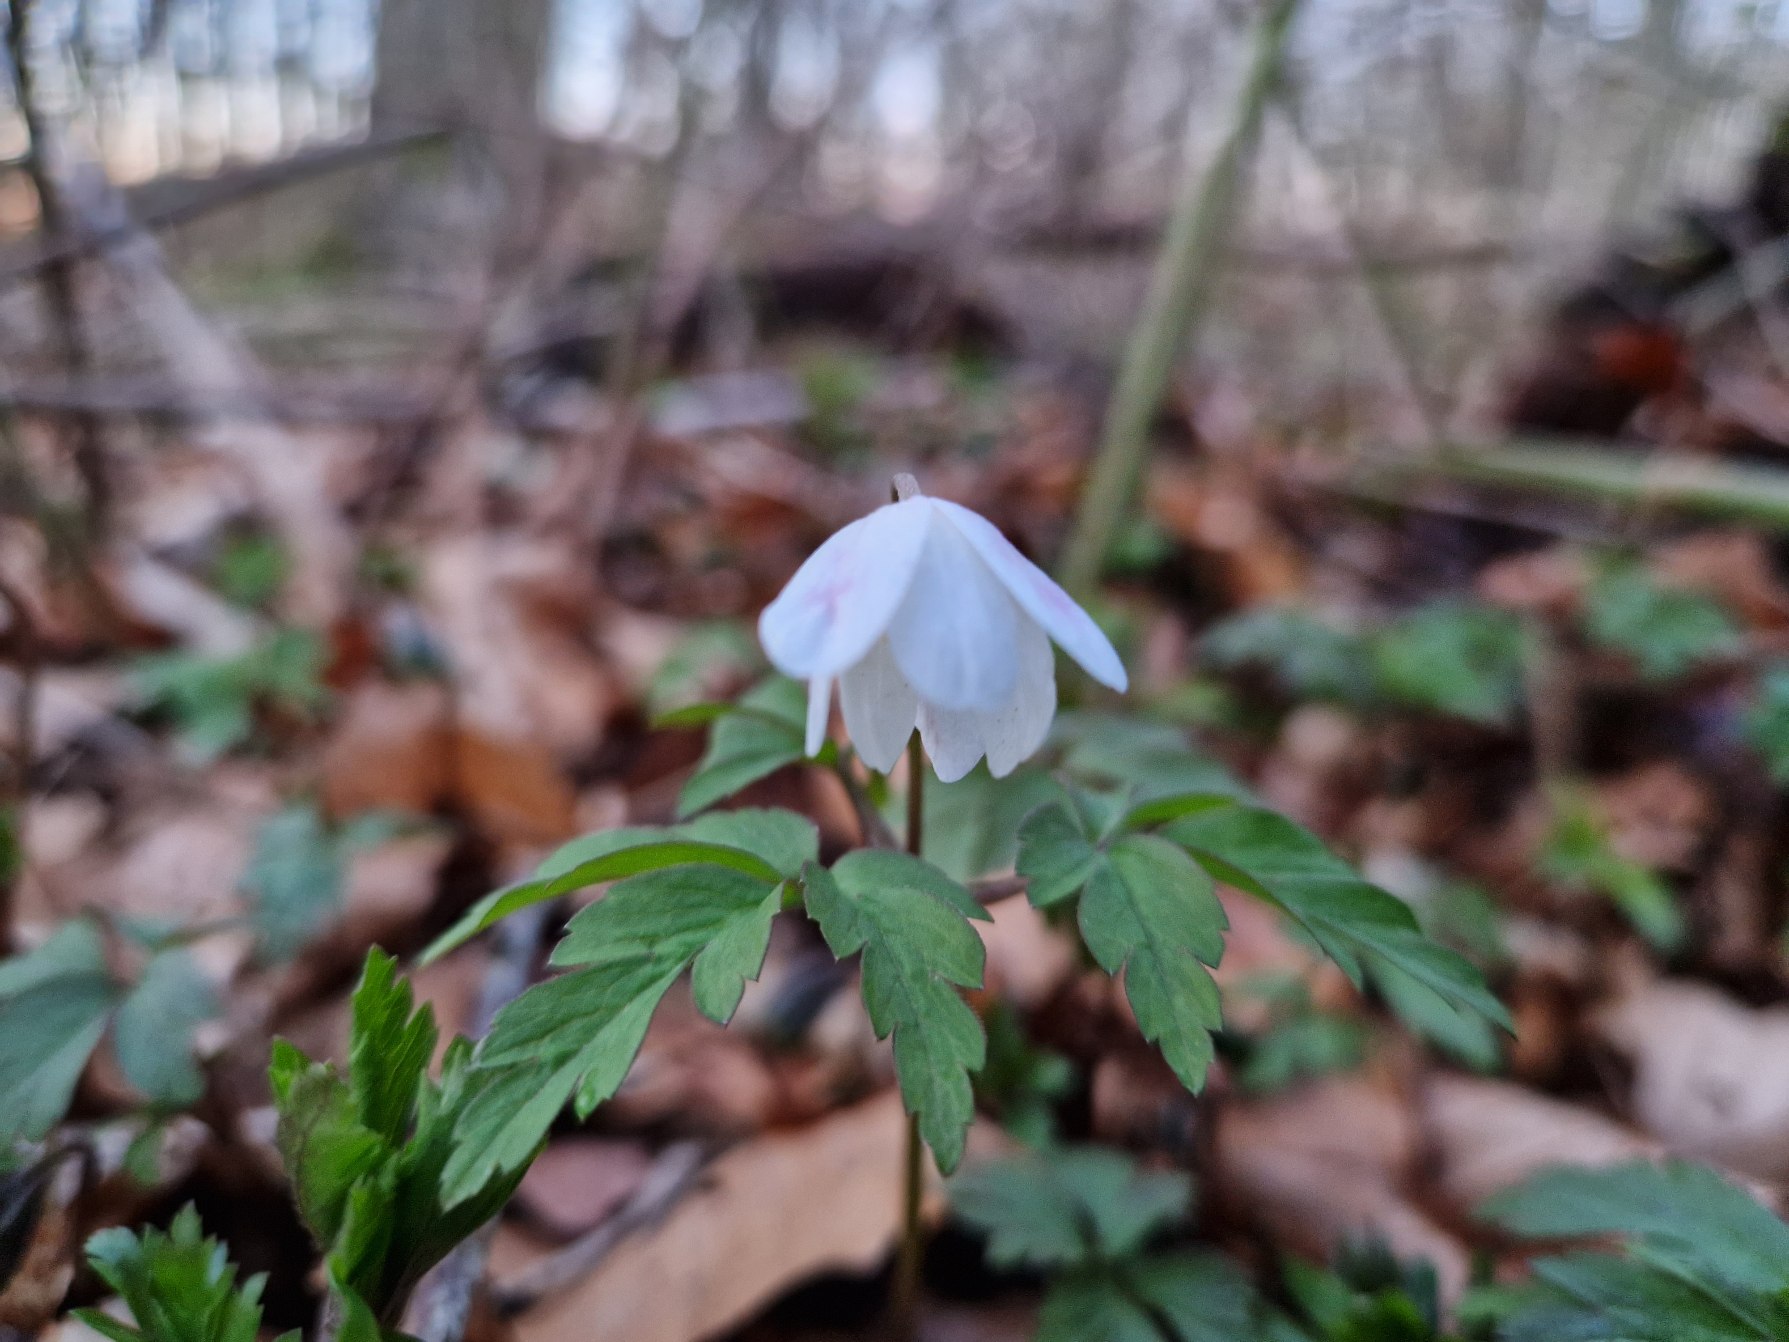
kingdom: Plantae
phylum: Tracheophyta
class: Magnoliopsida
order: Ranunculales
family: Ranunculaceae
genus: Anemone
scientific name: Anemone nemorosa
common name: Hvid anemone
